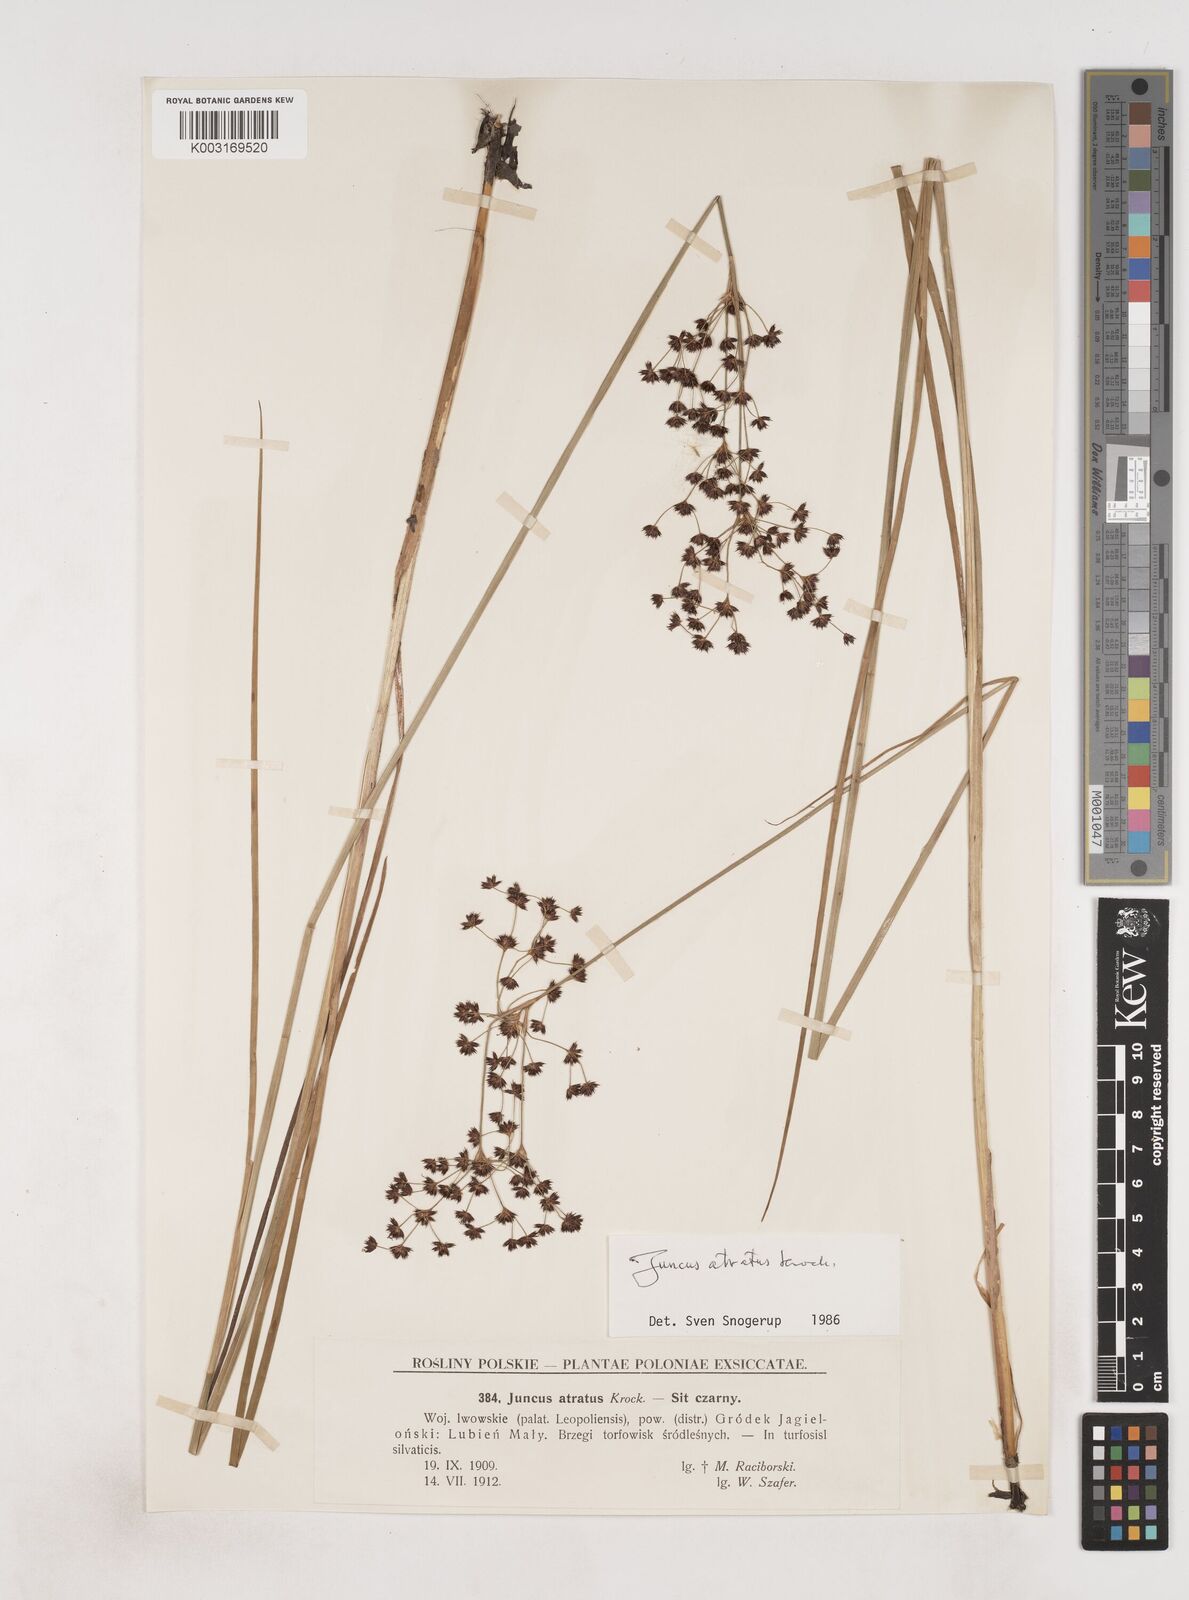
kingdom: Plantae
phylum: Tracheophyta
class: Liliopsida
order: Poales
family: Juncaceae
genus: Juncus
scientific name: Juncus atratus
